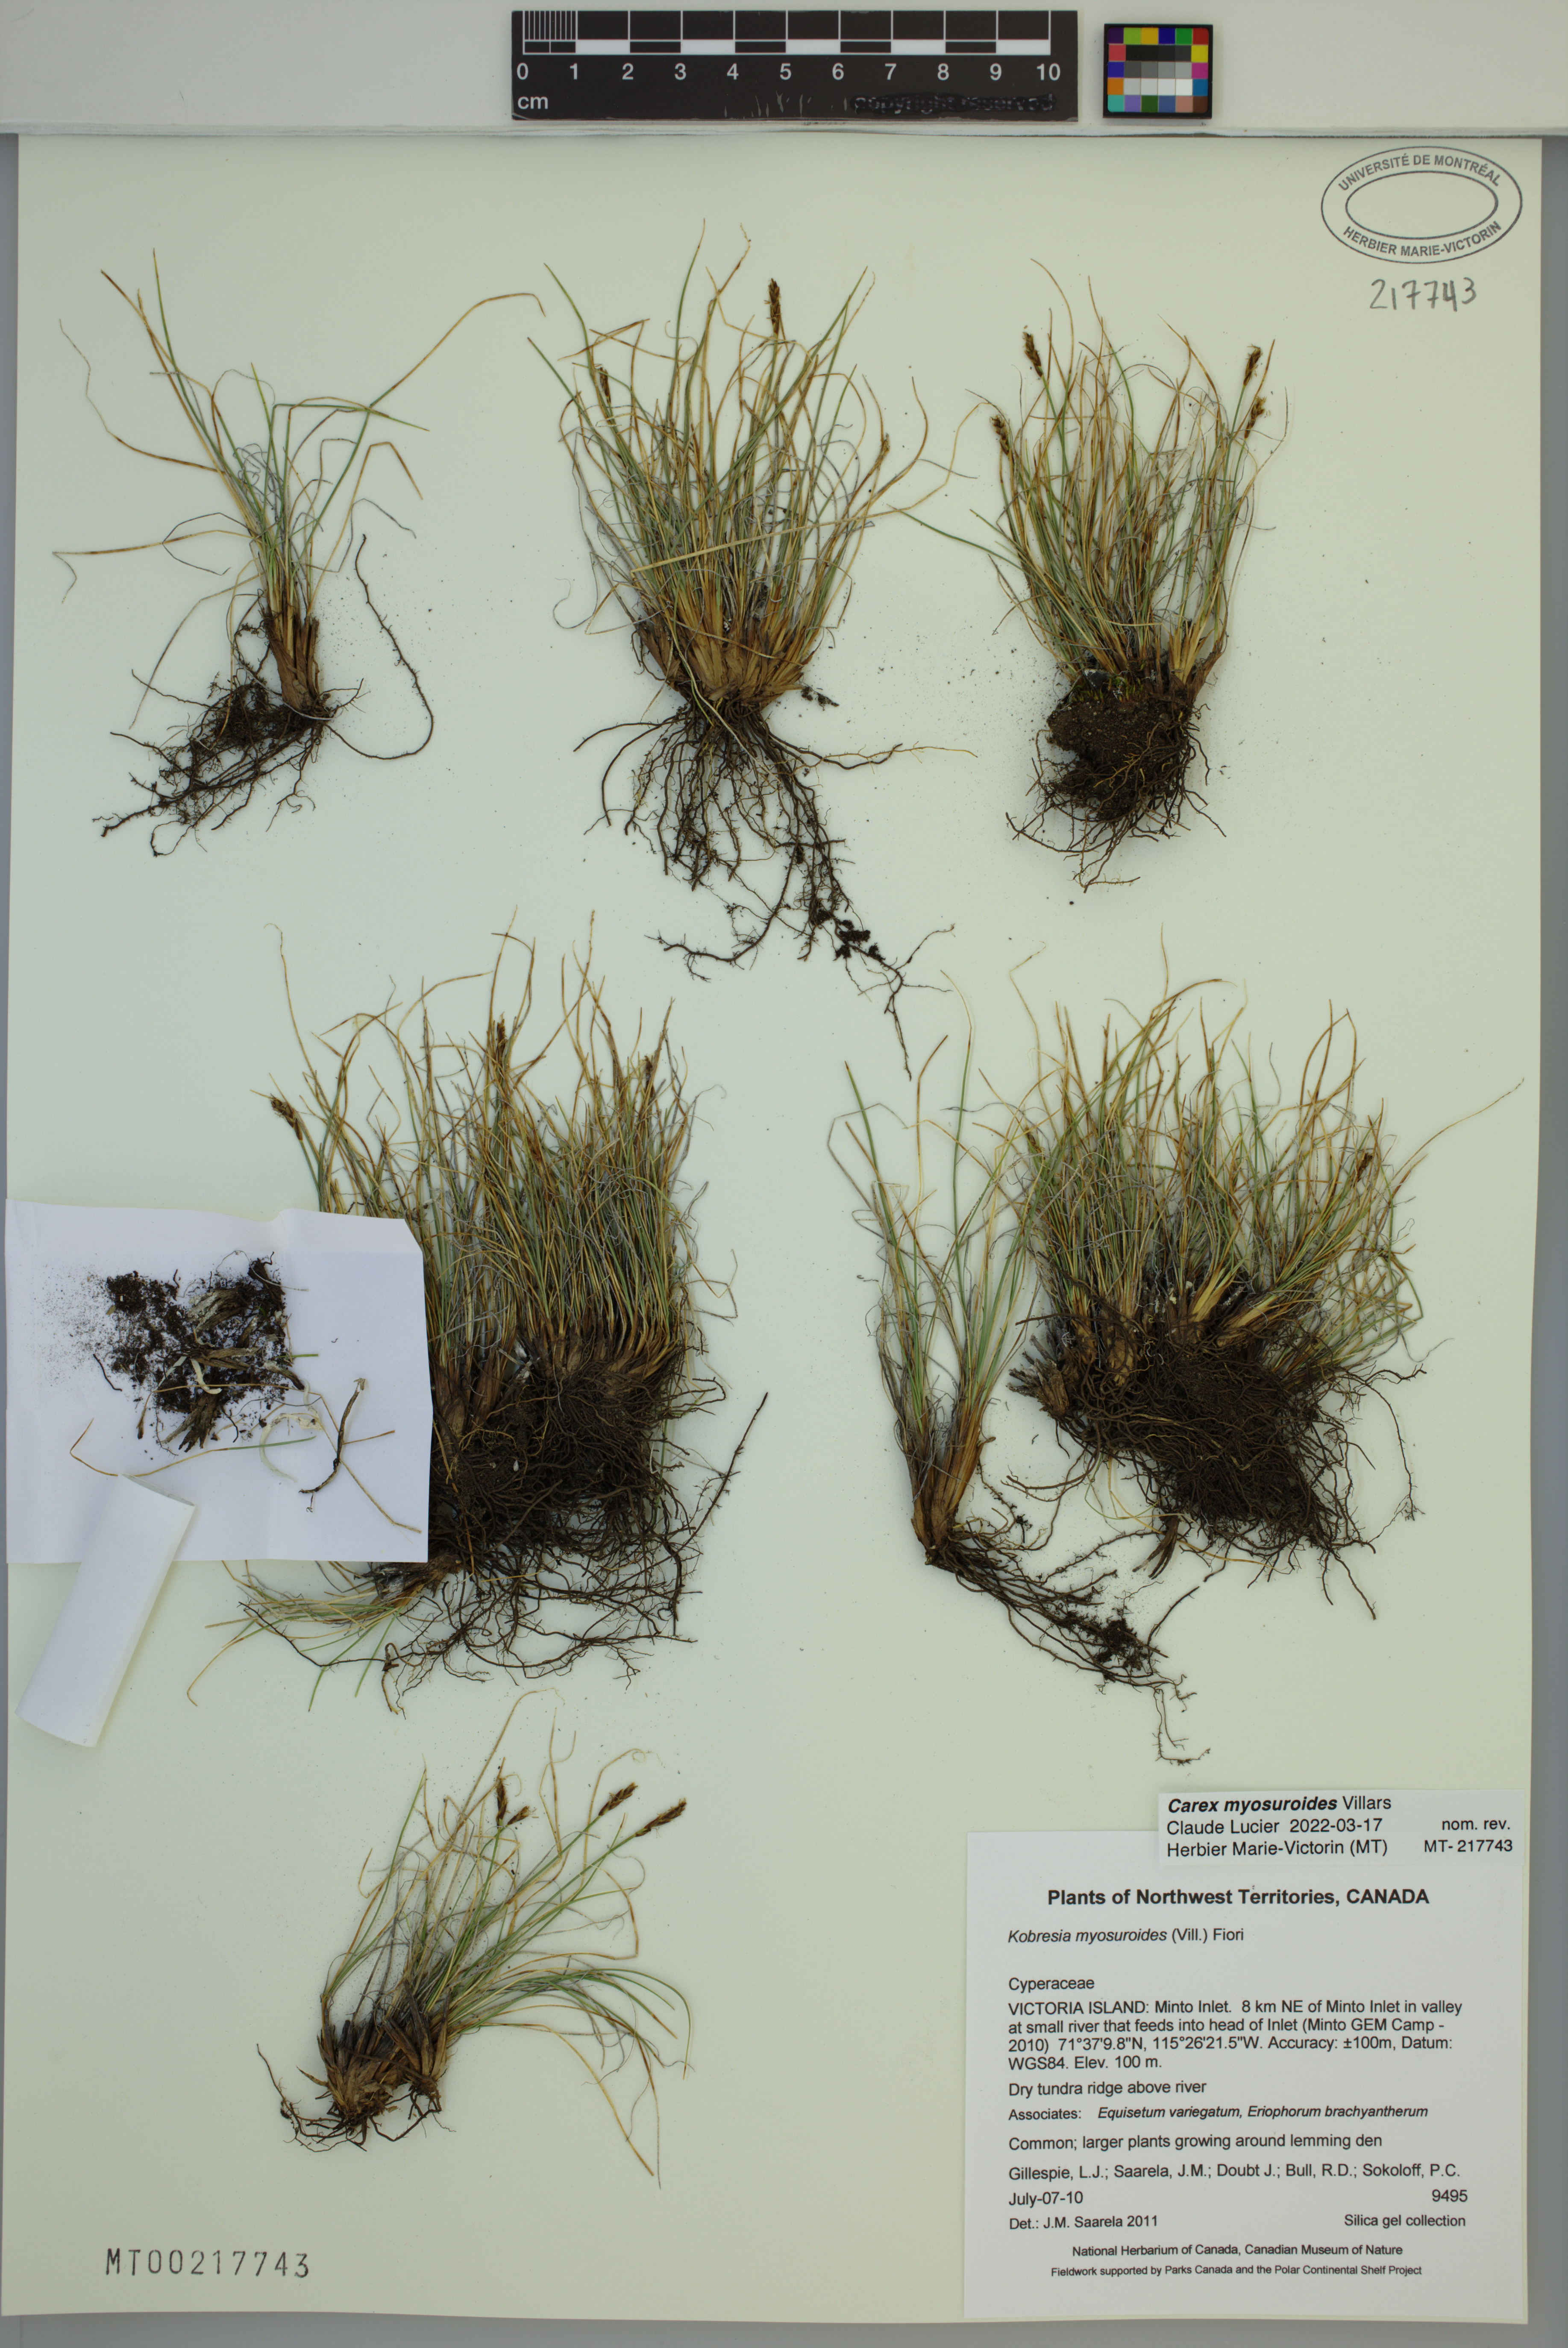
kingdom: Plantae
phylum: Tracheophyta
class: Liliopsida
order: Poales
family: Cyperaceae
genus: Carex
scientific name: Carex myosuroides
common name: Bellard's bog sedge
